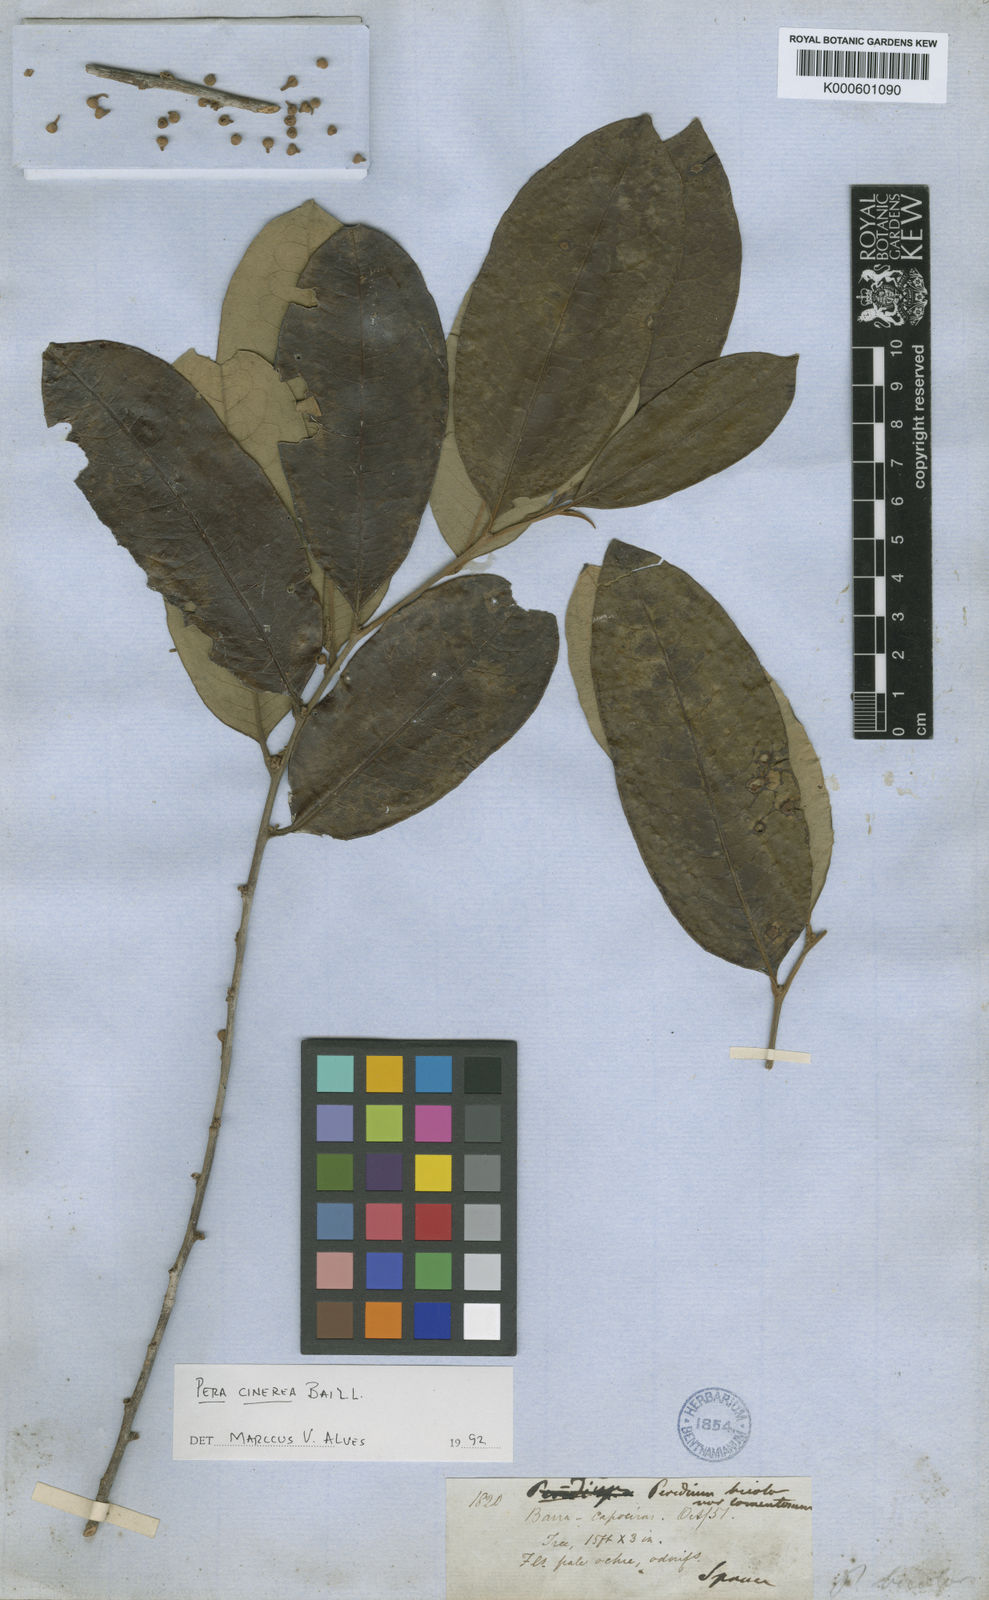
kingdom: Plantae
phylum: Tracheophyta
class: Magnoliopsida
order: Malpighiales
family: Peraceae
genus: Pera
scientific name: Pera
